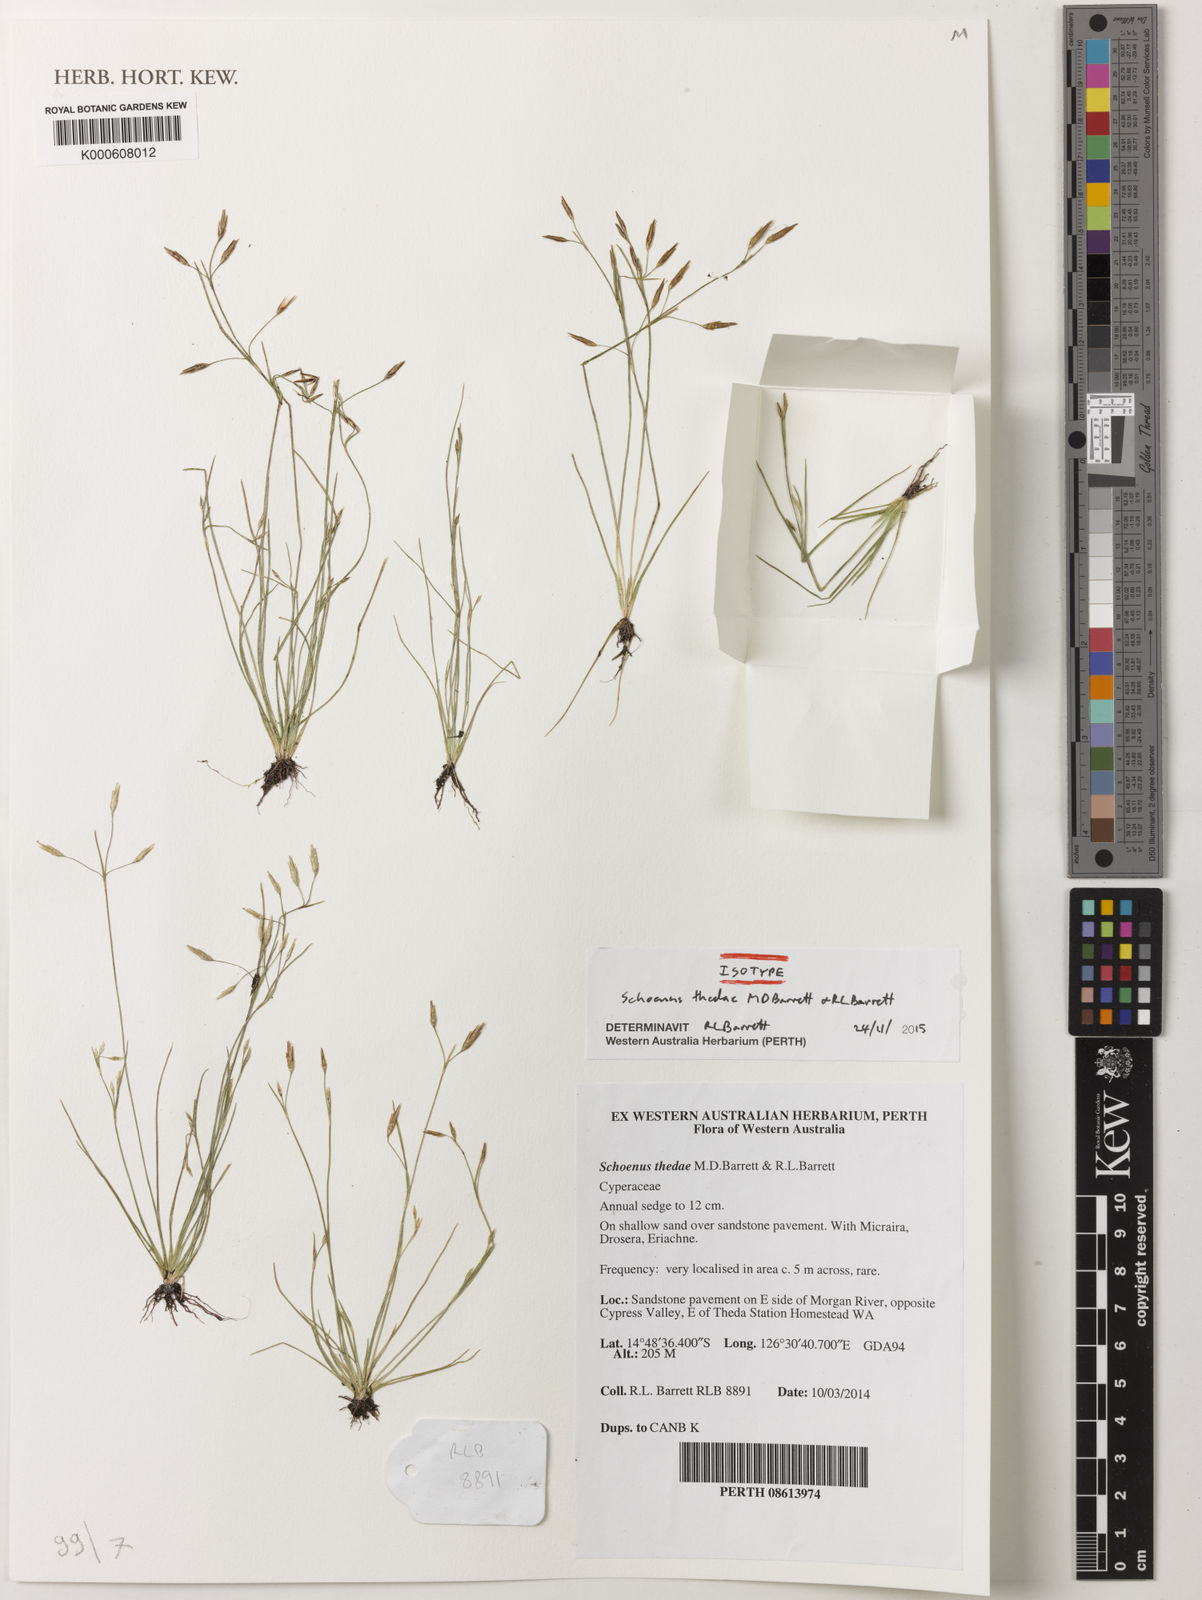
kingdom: Plantae
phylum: Tracheophyta
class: Liliopsida
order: Poales
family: Cyperaceae
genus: Schoenus
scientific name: Schoenus thedae
